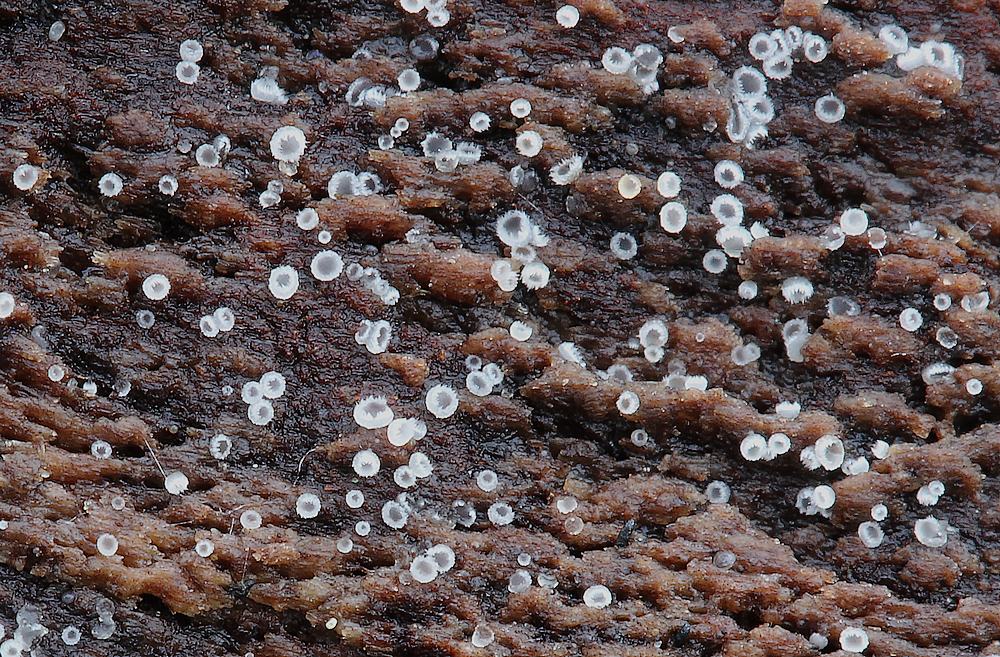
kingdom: Fungi
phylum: Ascomycota
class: Leotiomycetes
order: Helotiales
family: Hyaloscyphaceae
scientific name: Hyaloscyphaceae
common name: frynseskivefamilien
